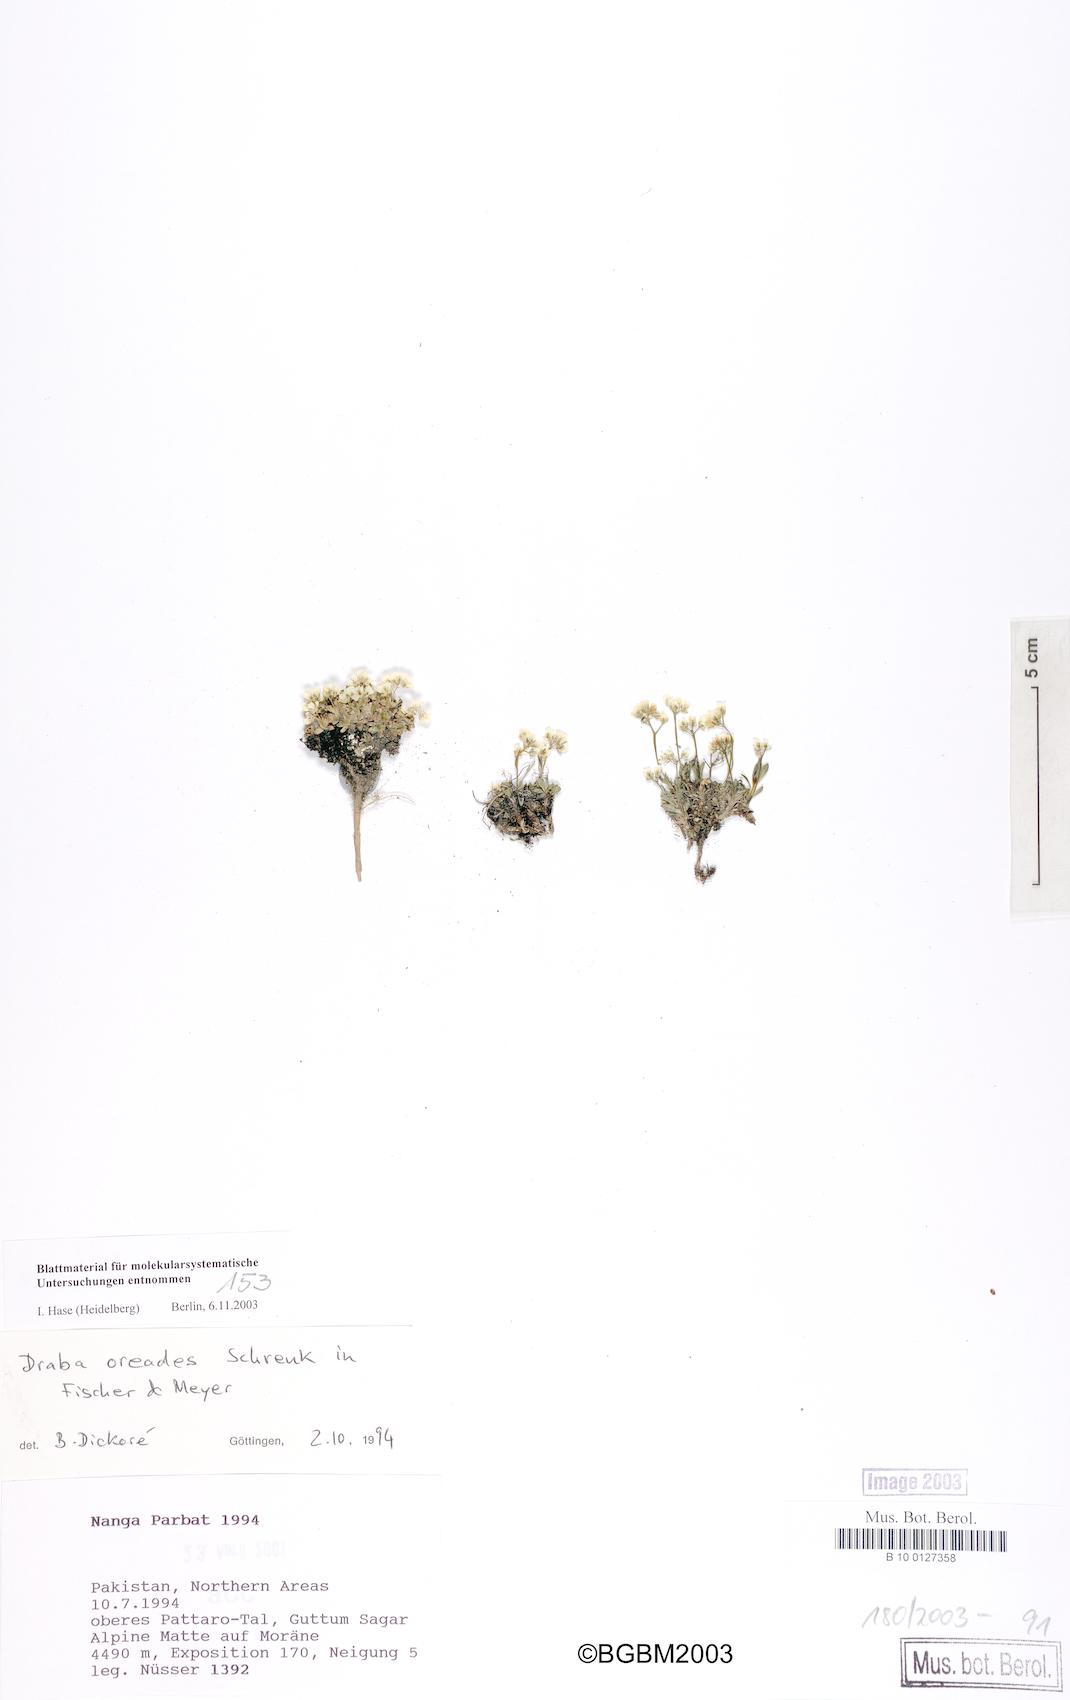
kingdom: Plantae
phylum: Tracheophyta
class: Magnoliopsida
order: Brassicales
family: Brassicaceae
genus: Draba
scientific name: Draba oreades
